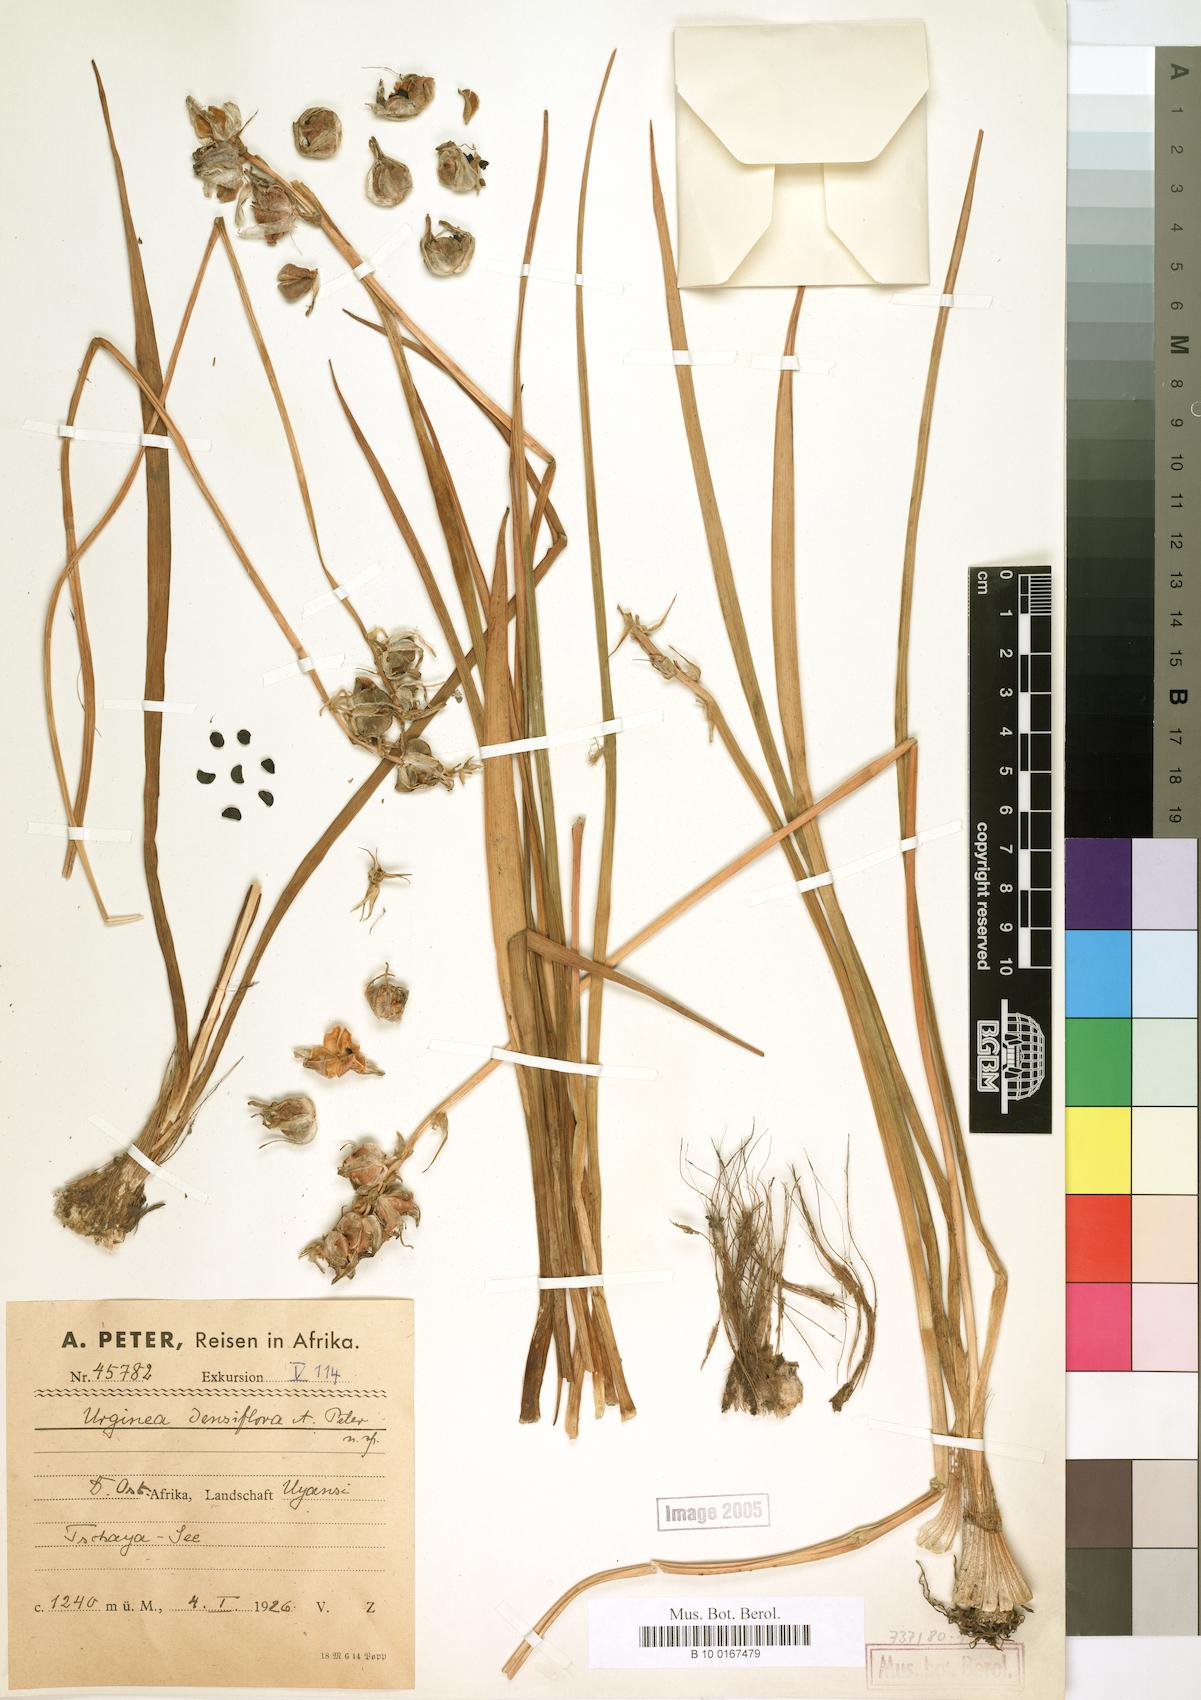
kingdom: Plantae
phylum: Tracheophyta
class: Liliopsida
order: Asparagales
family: Asparagaceae
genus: Drimia
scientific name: Drimia
